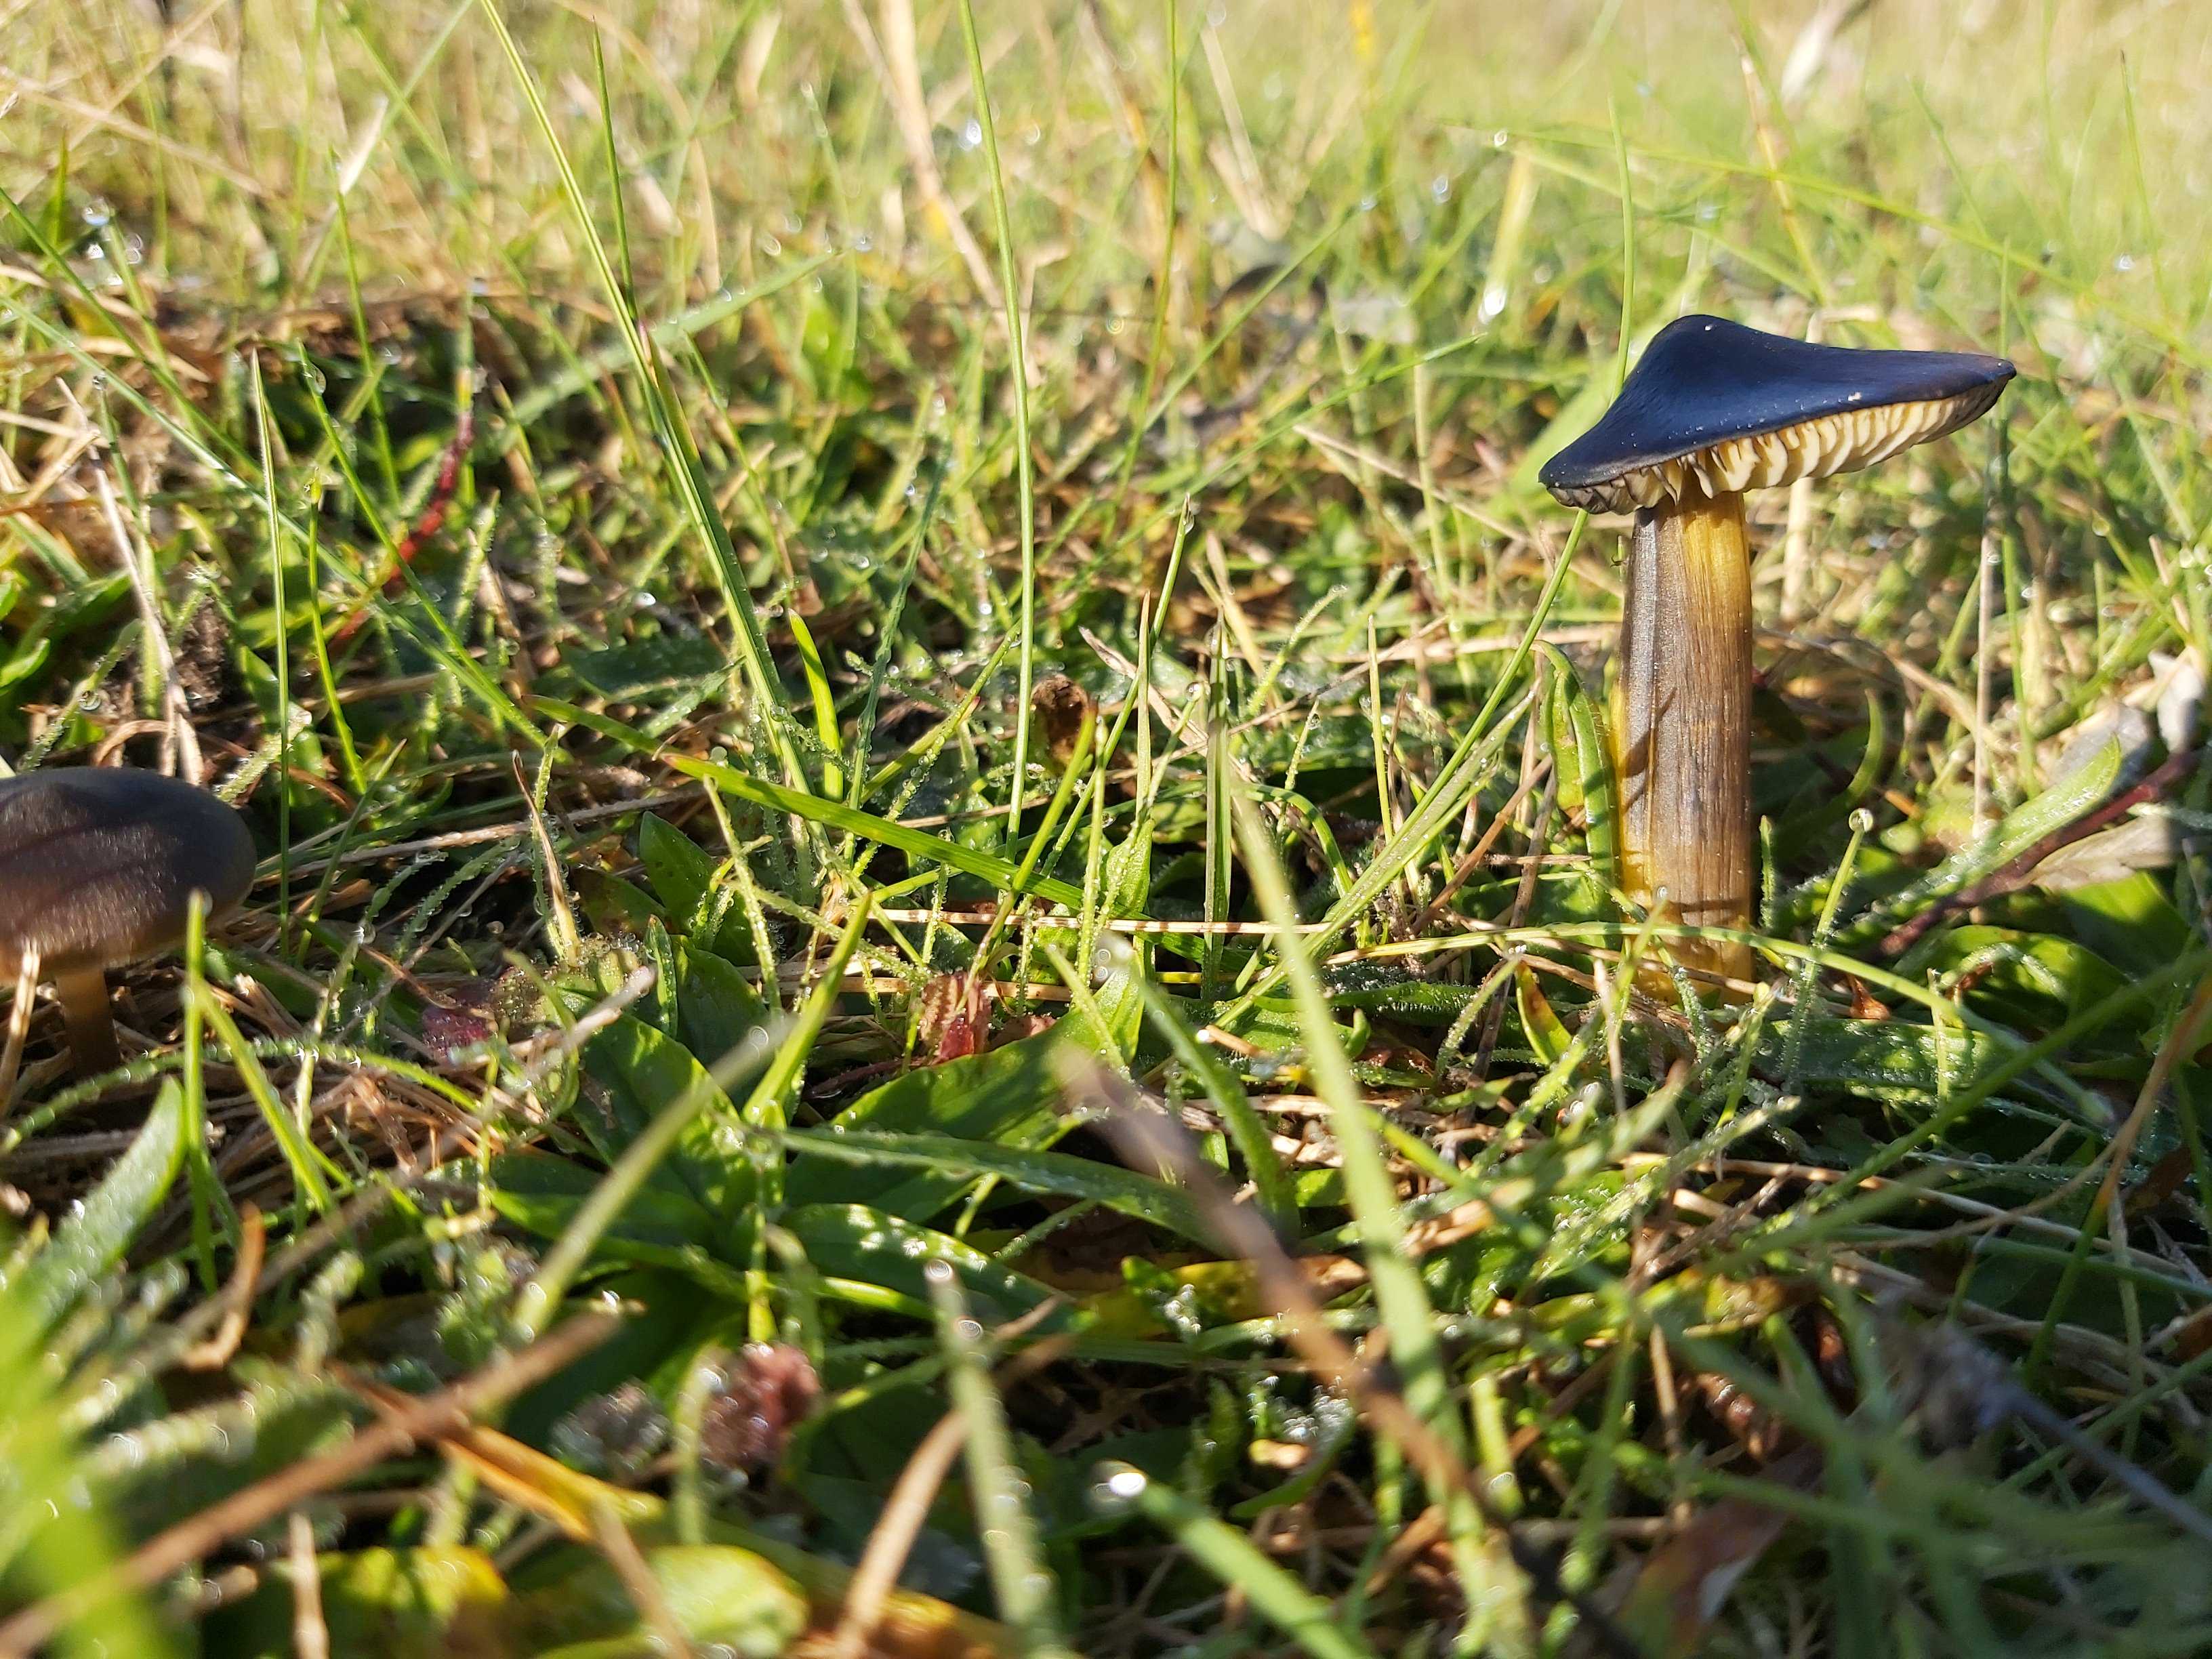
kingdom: Fungi
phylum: Basidiomycota
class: Agaricomycetes
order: Agaricales
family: Hygrophoraceae
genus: Hygrocybe
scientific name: Hygrocybe conica
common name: kegle-vokshat
